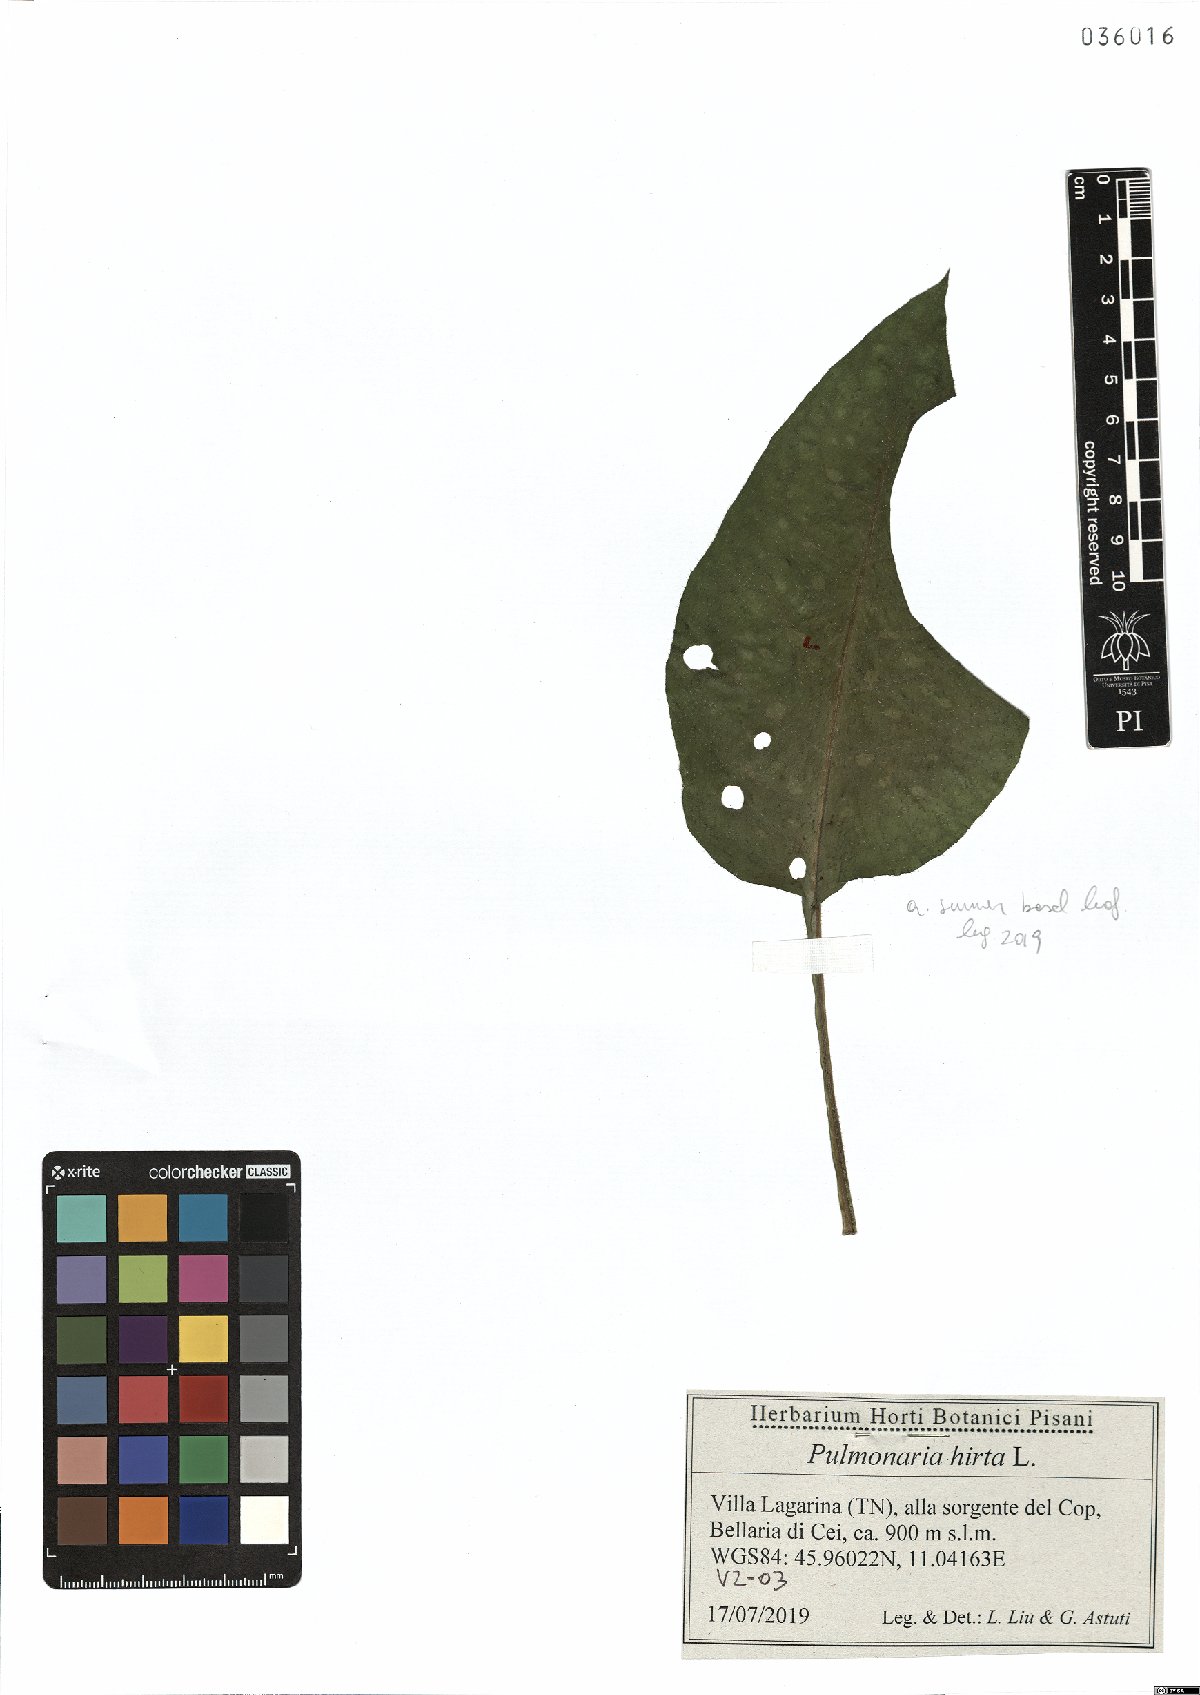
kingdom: Plantae
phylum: Tracheophyta
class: Magnoliopsida
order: Boraginales
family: Boraginaceae
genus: Pulmonaria
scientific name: Pulmonaria hirta
